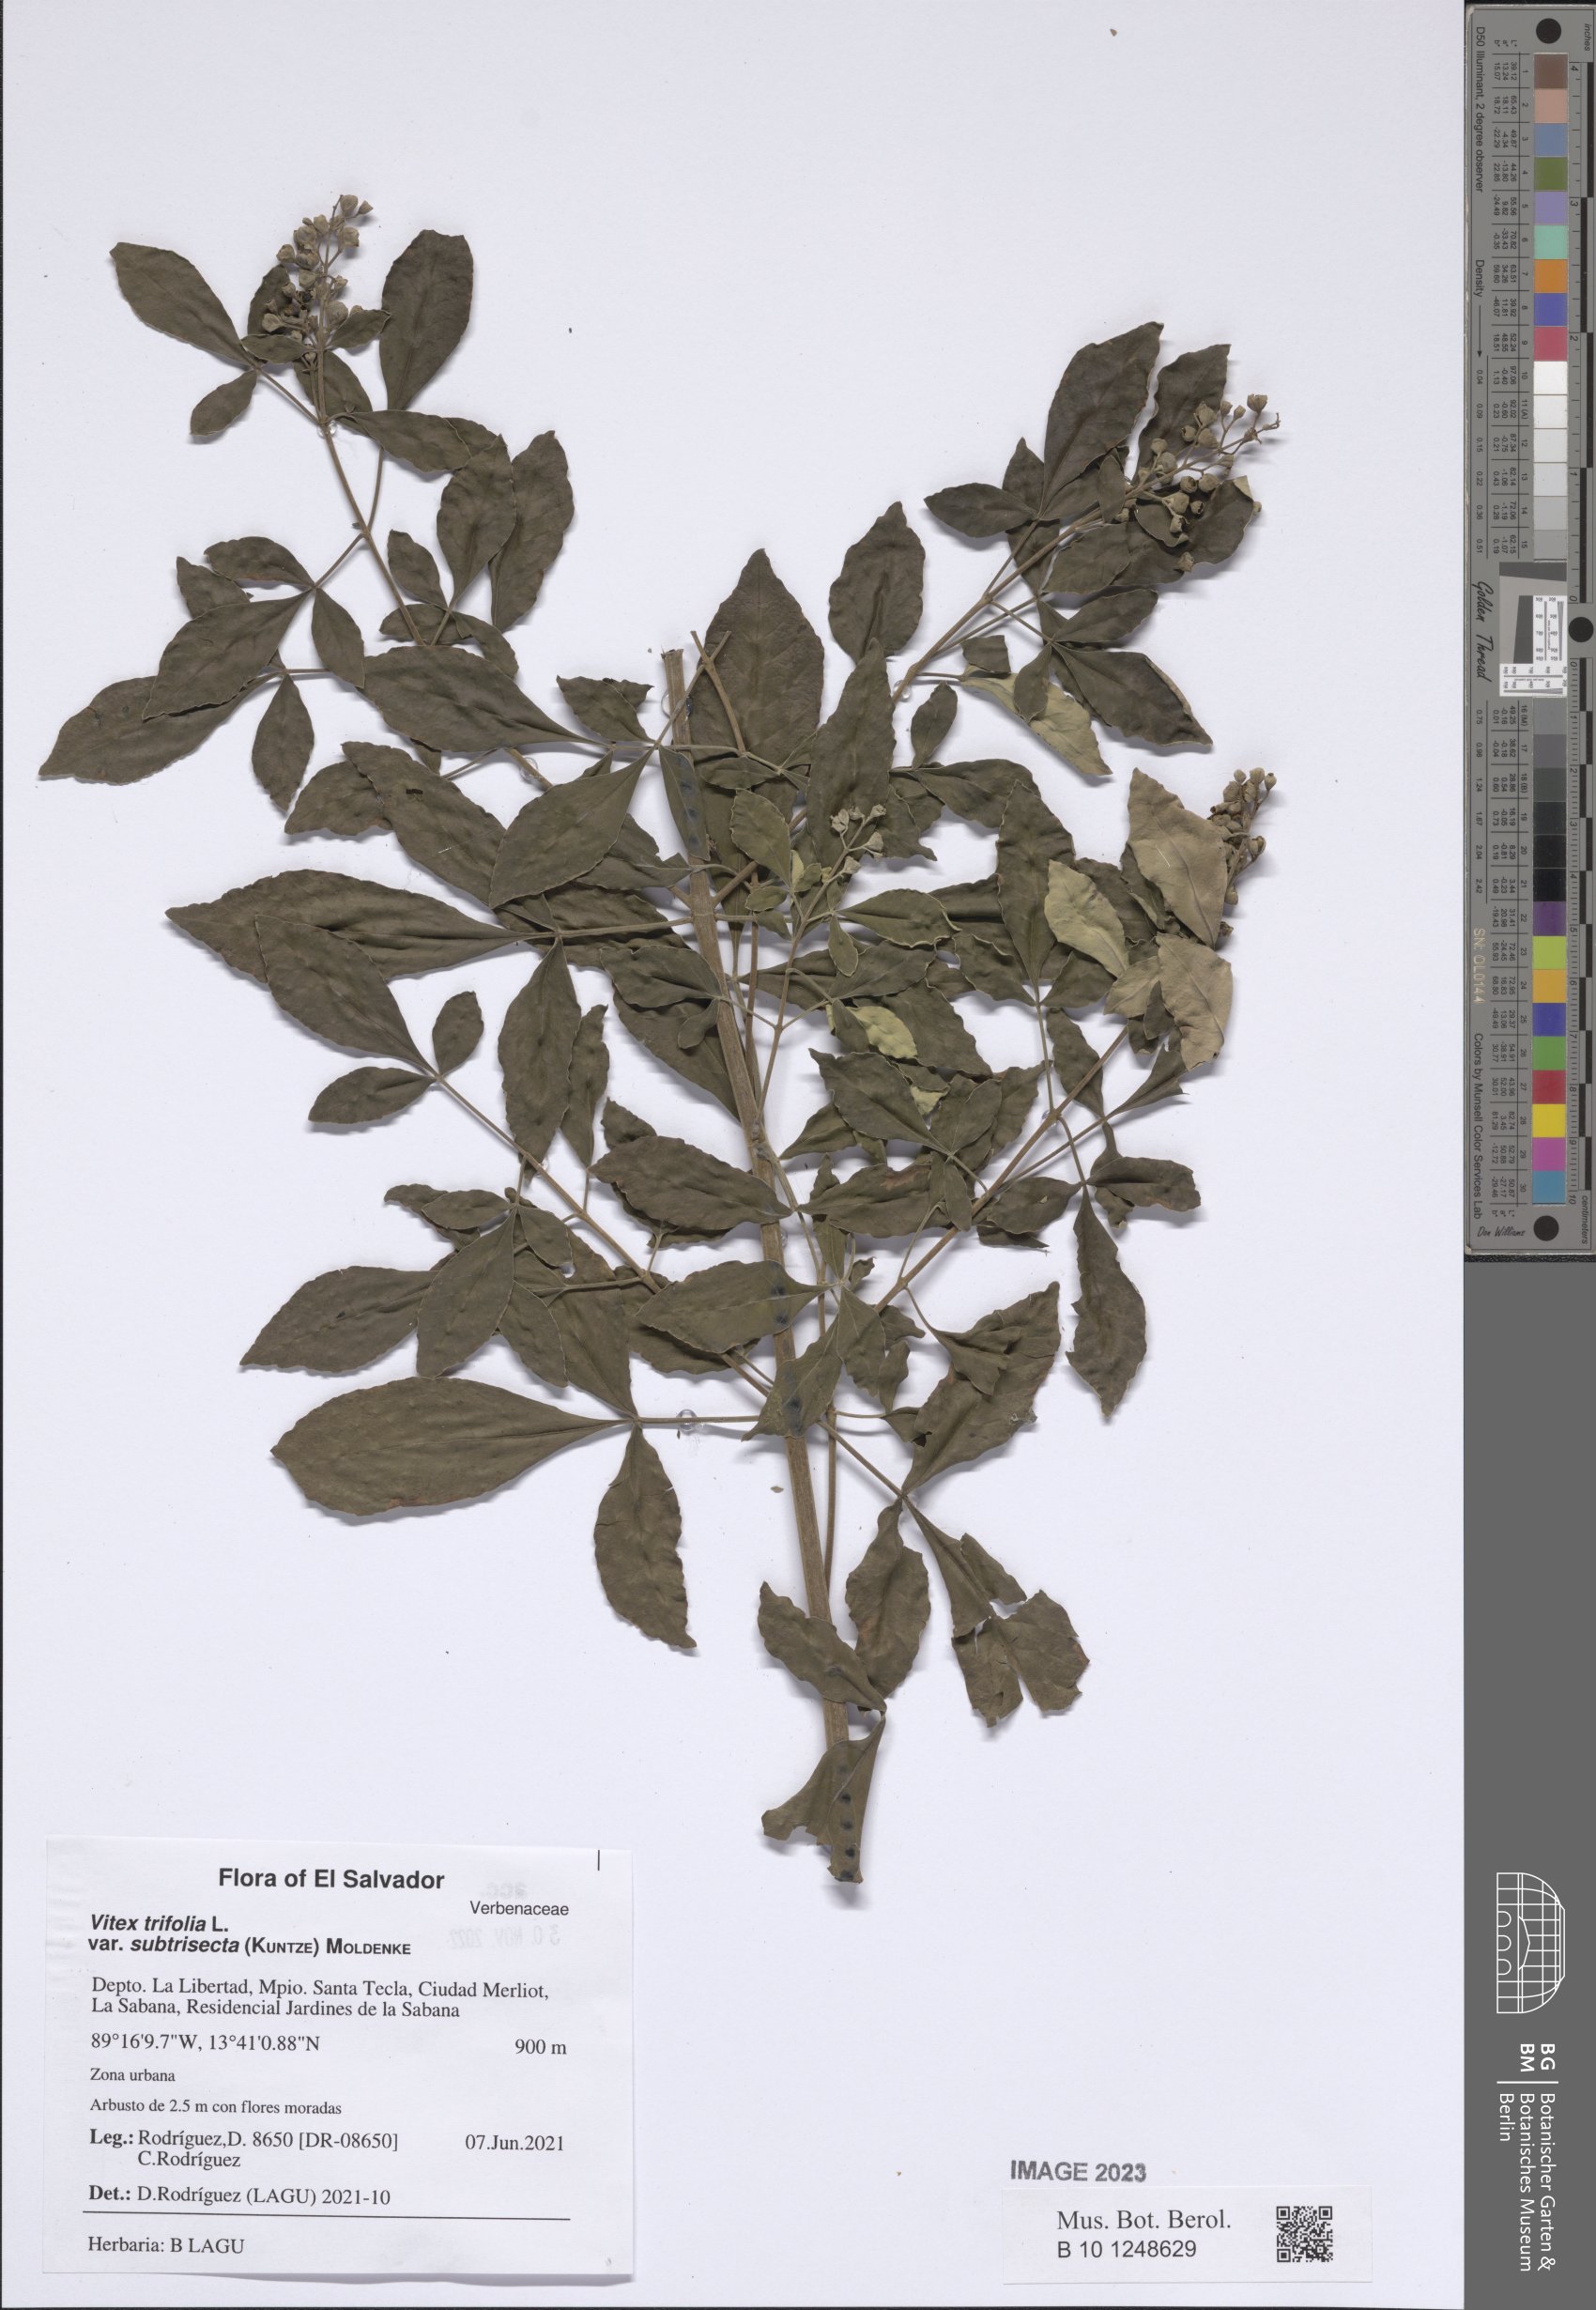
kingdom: Plantae
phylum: Tracheophyta
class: Magnoliopsida
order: Lamiales
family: Lamiaceae
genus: Vitex
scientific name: Vitex trifolia
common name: Simpleleaf chastetree
